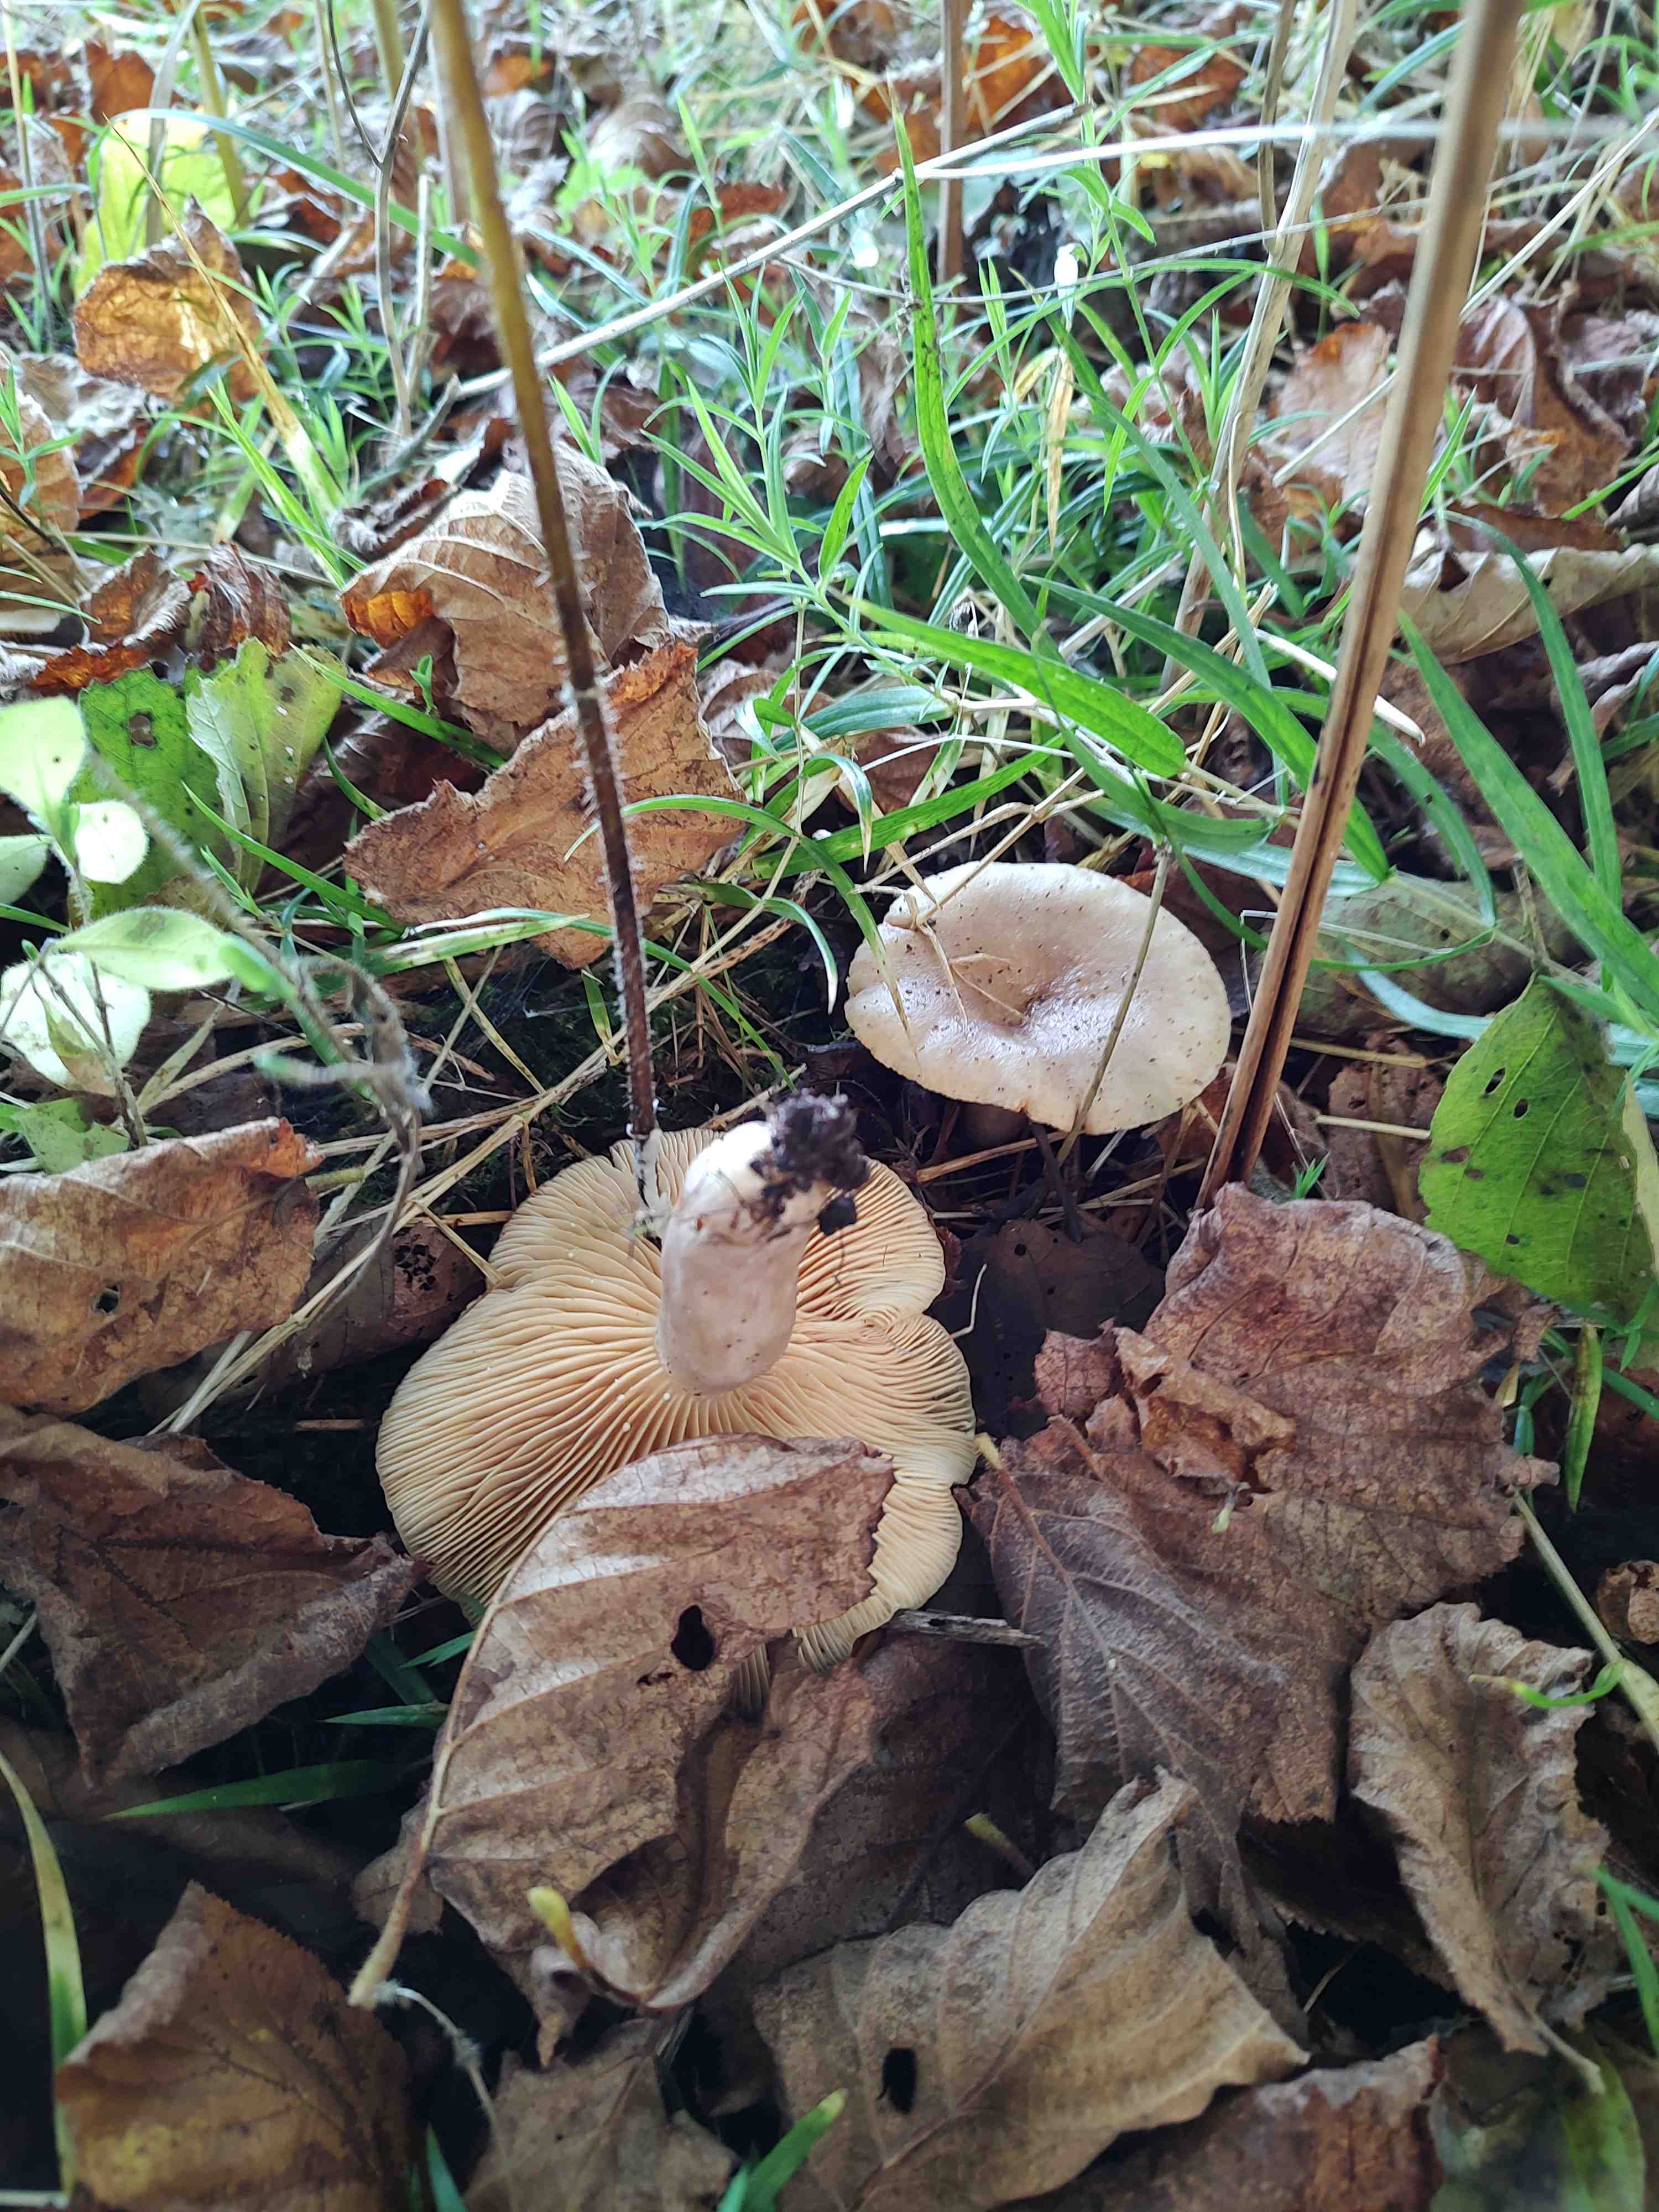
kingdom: Fungi
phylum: Basidiomycota
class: Agaricomycetes
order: Russulales
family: Russulaceae
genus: Lactarius
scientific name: Lactarius pyrogalus
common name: hassel-mælkehat
